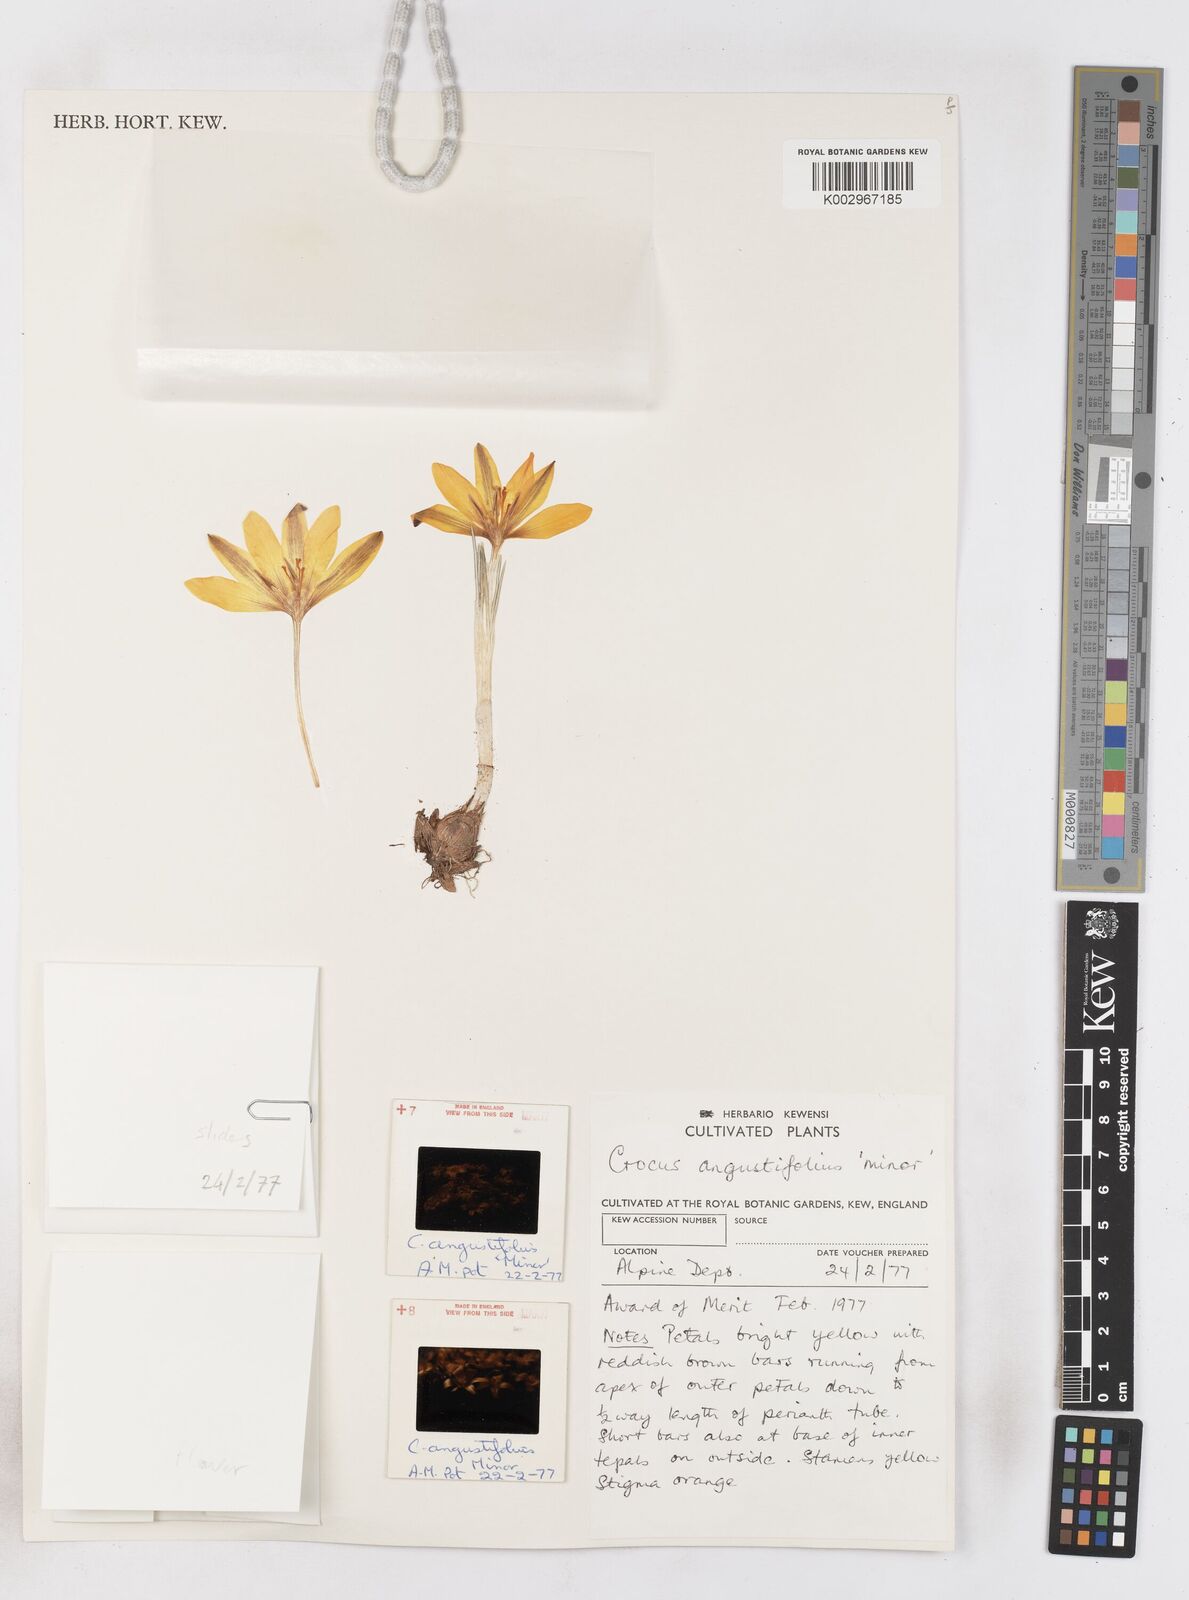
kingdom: Plantae
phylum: Tracheophyta
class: Liliopsida
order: Asparagales
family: Iridaceae
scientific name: Iridaceae
